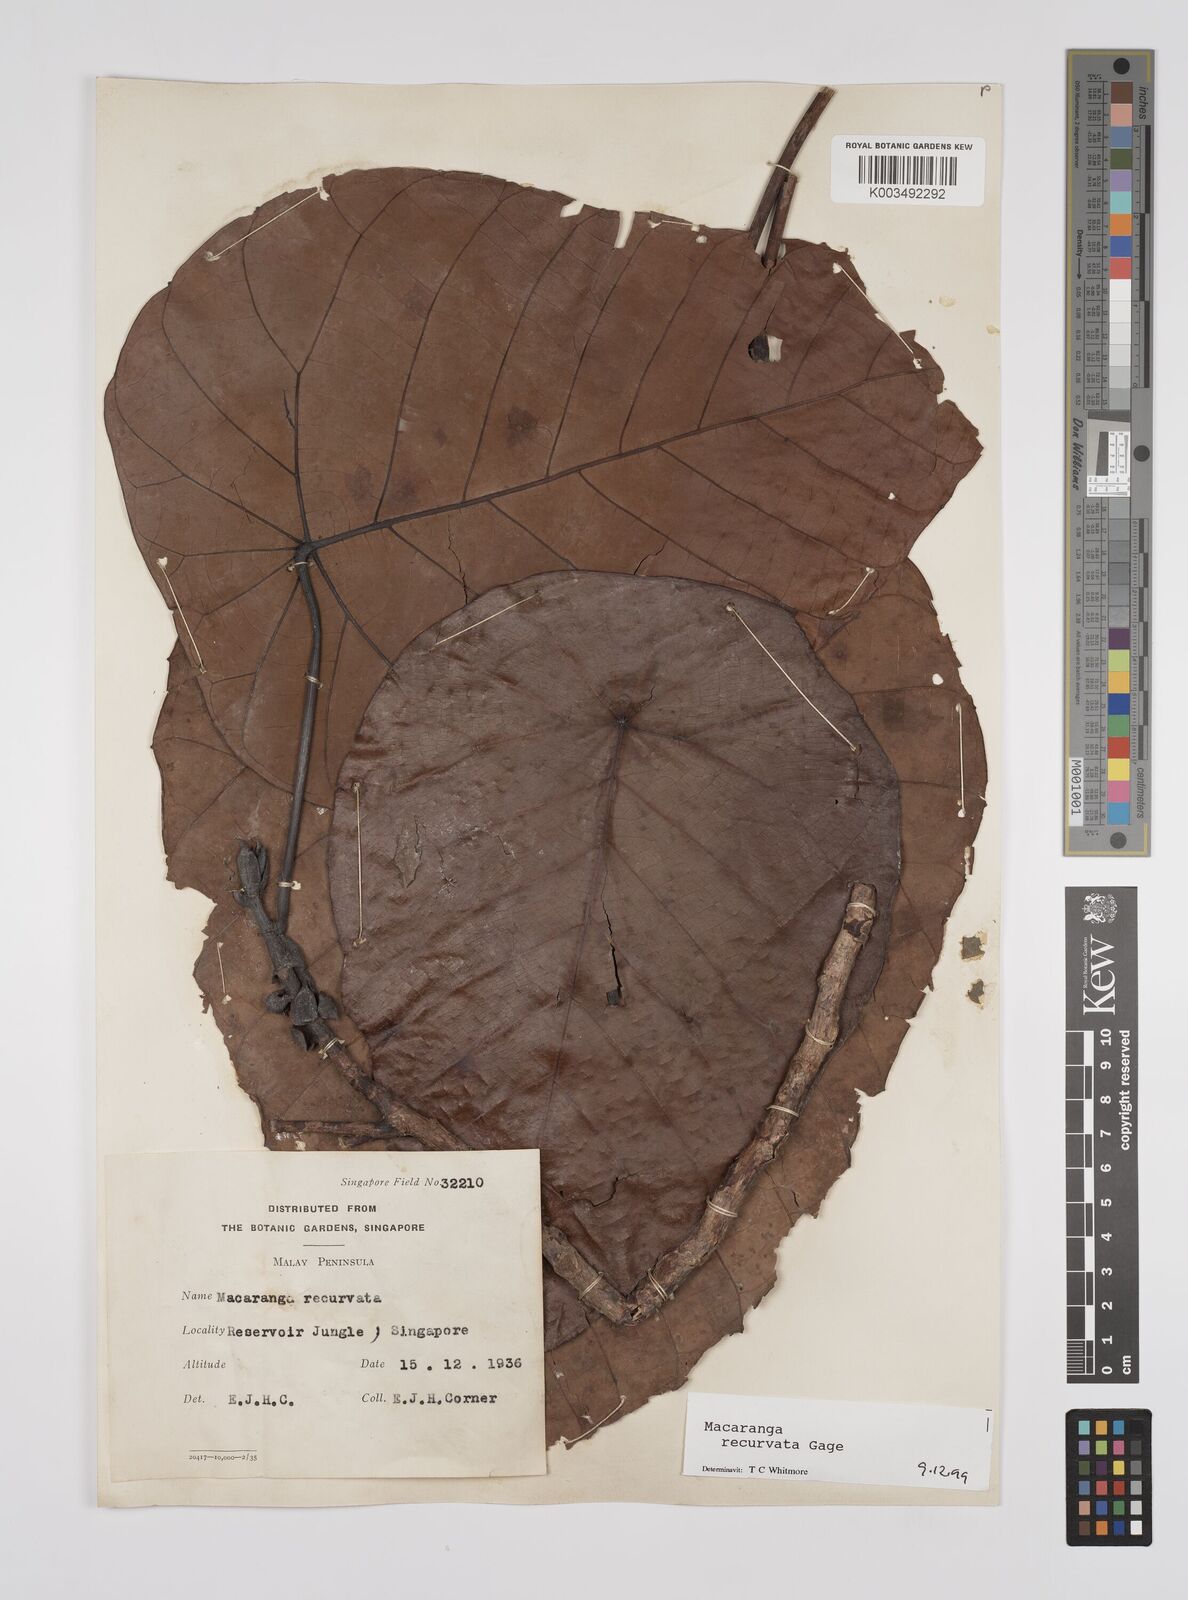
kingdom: Plantae
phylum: Tracheophyta
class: Magnoliopsida
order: Malpighiales
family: Euphorbiaceae
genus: Macaranga
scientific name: Macaranga recurvata
